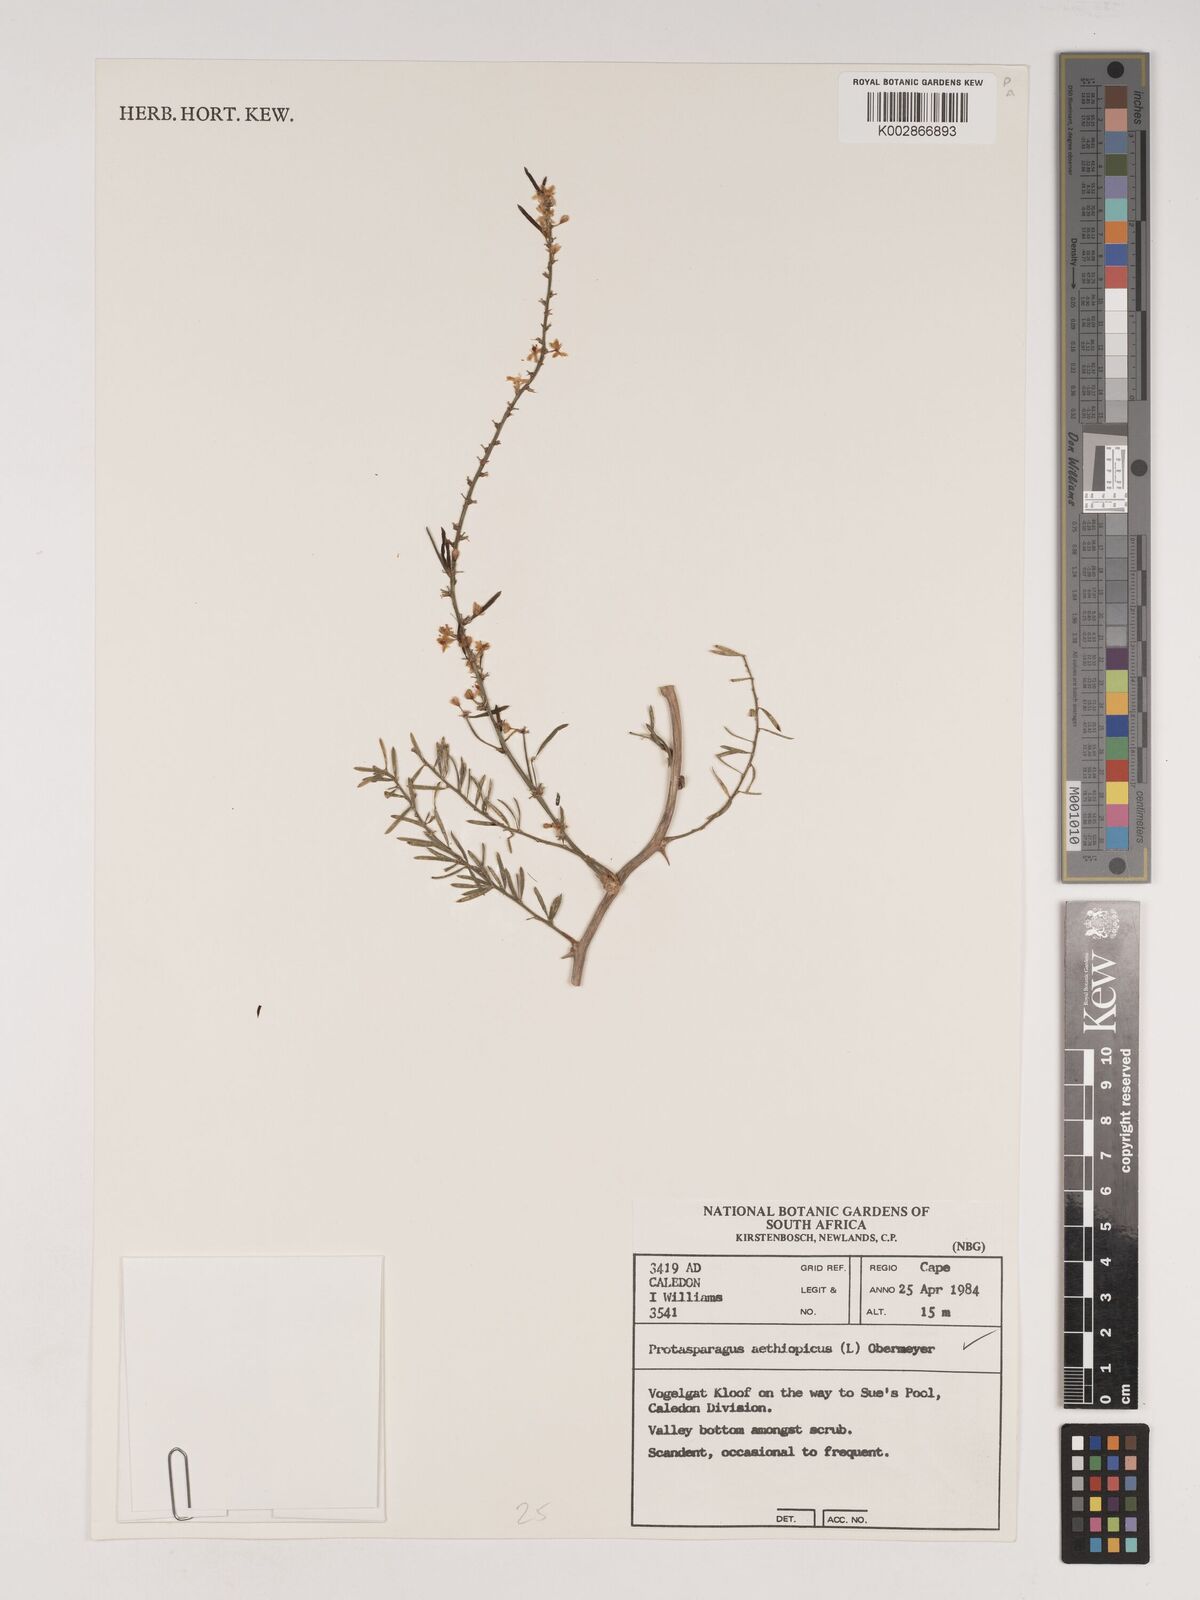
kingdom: Plantae
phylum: Tracheophyta
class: Liliopsida
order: Asparagales
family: Asparagaceae
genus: Asparagus
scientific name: Asparagus aethiopicus
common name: Sprenger's asparagus fern
